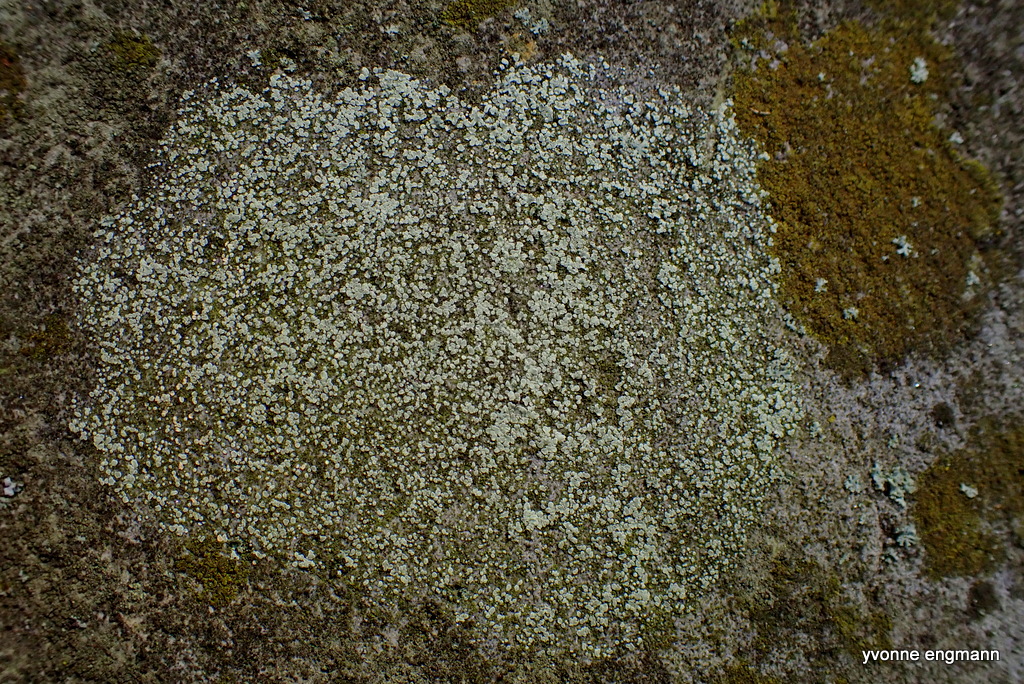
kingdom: Fungi
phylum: Ascomycota
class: Lecanoromycetes
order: Lecanorales
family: Lecanoraceae
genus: Protoparmeliopsis
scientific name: Protoparmeliopsis muralis
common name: randfliget kantskivelav
